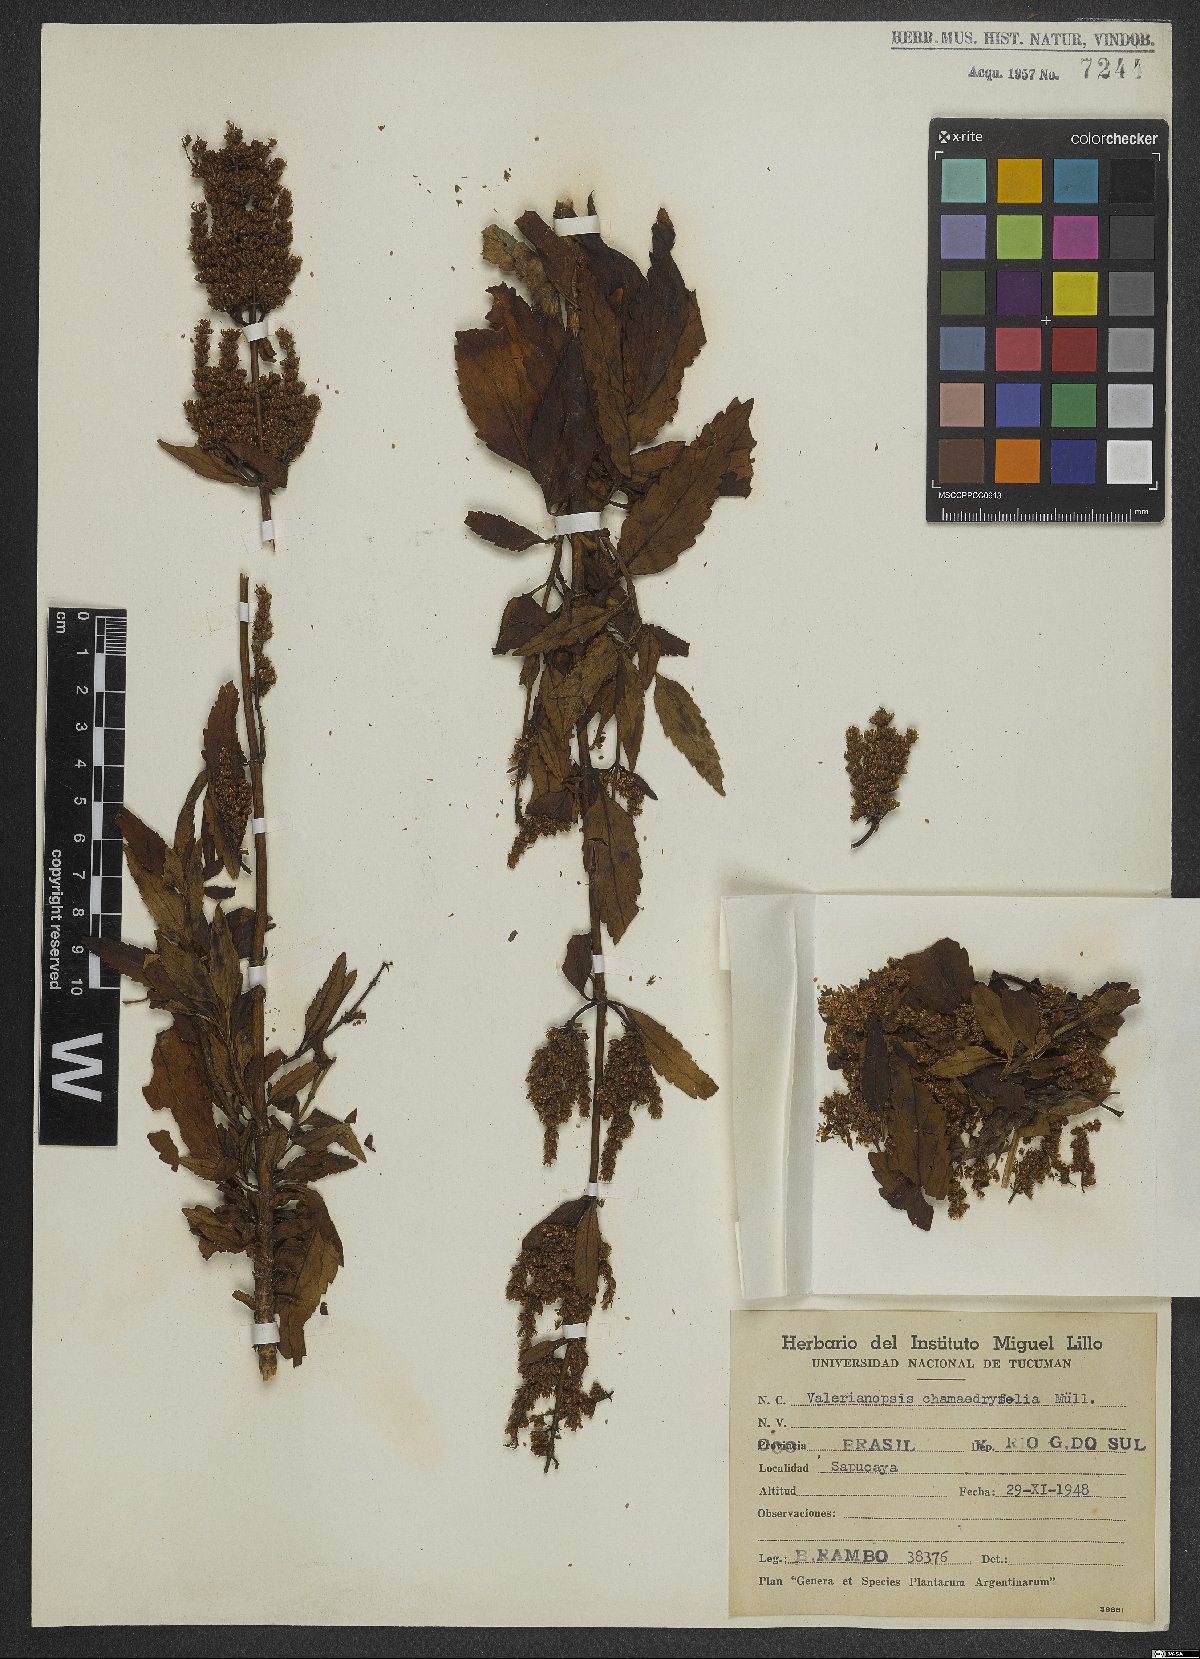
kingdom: Plantae
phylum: Tracheophyta
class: Magnoliopsida
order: Dipsacales
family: Caprifoliaceae
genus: Valeriana
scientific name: Valeriana chamaedryfolia
